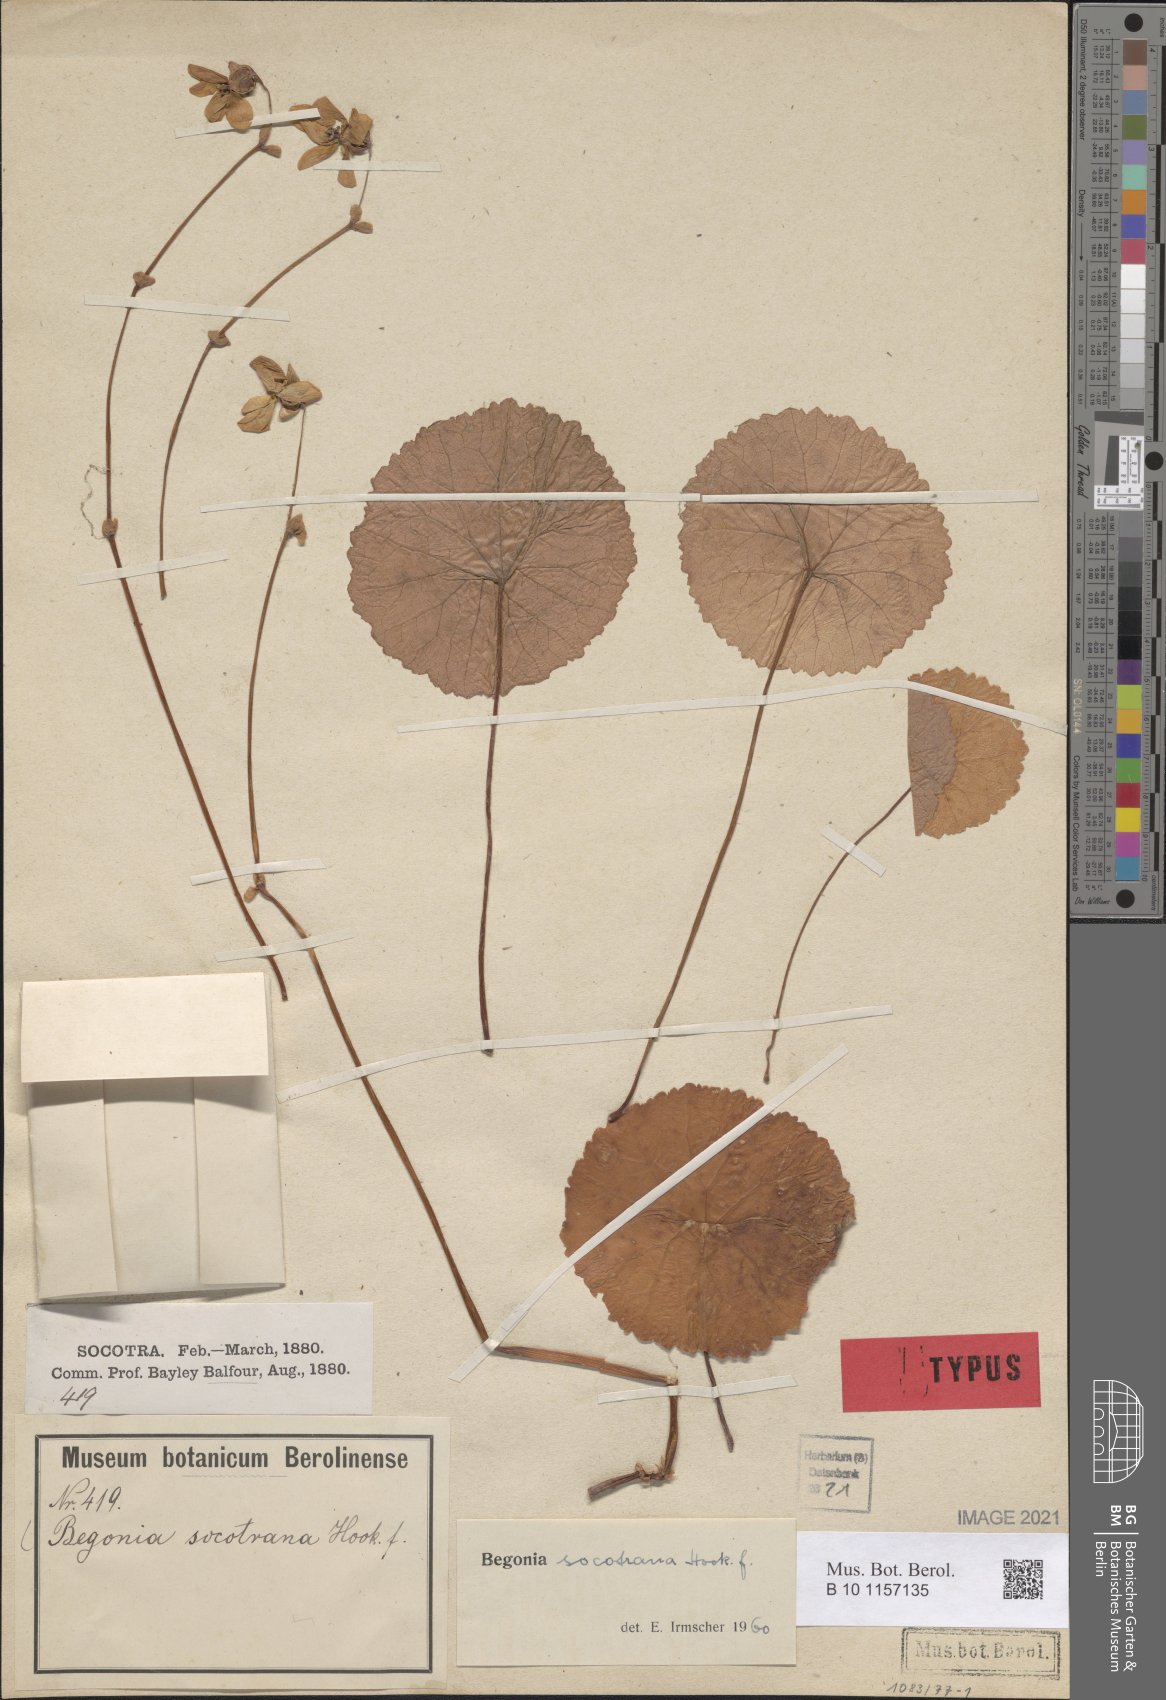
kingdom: Plantae
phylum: Tracheophyta
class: Magnoliopsida
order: Cucurbitales
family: Begoniaceae
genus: Begonia
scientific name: Begonia socotrana
